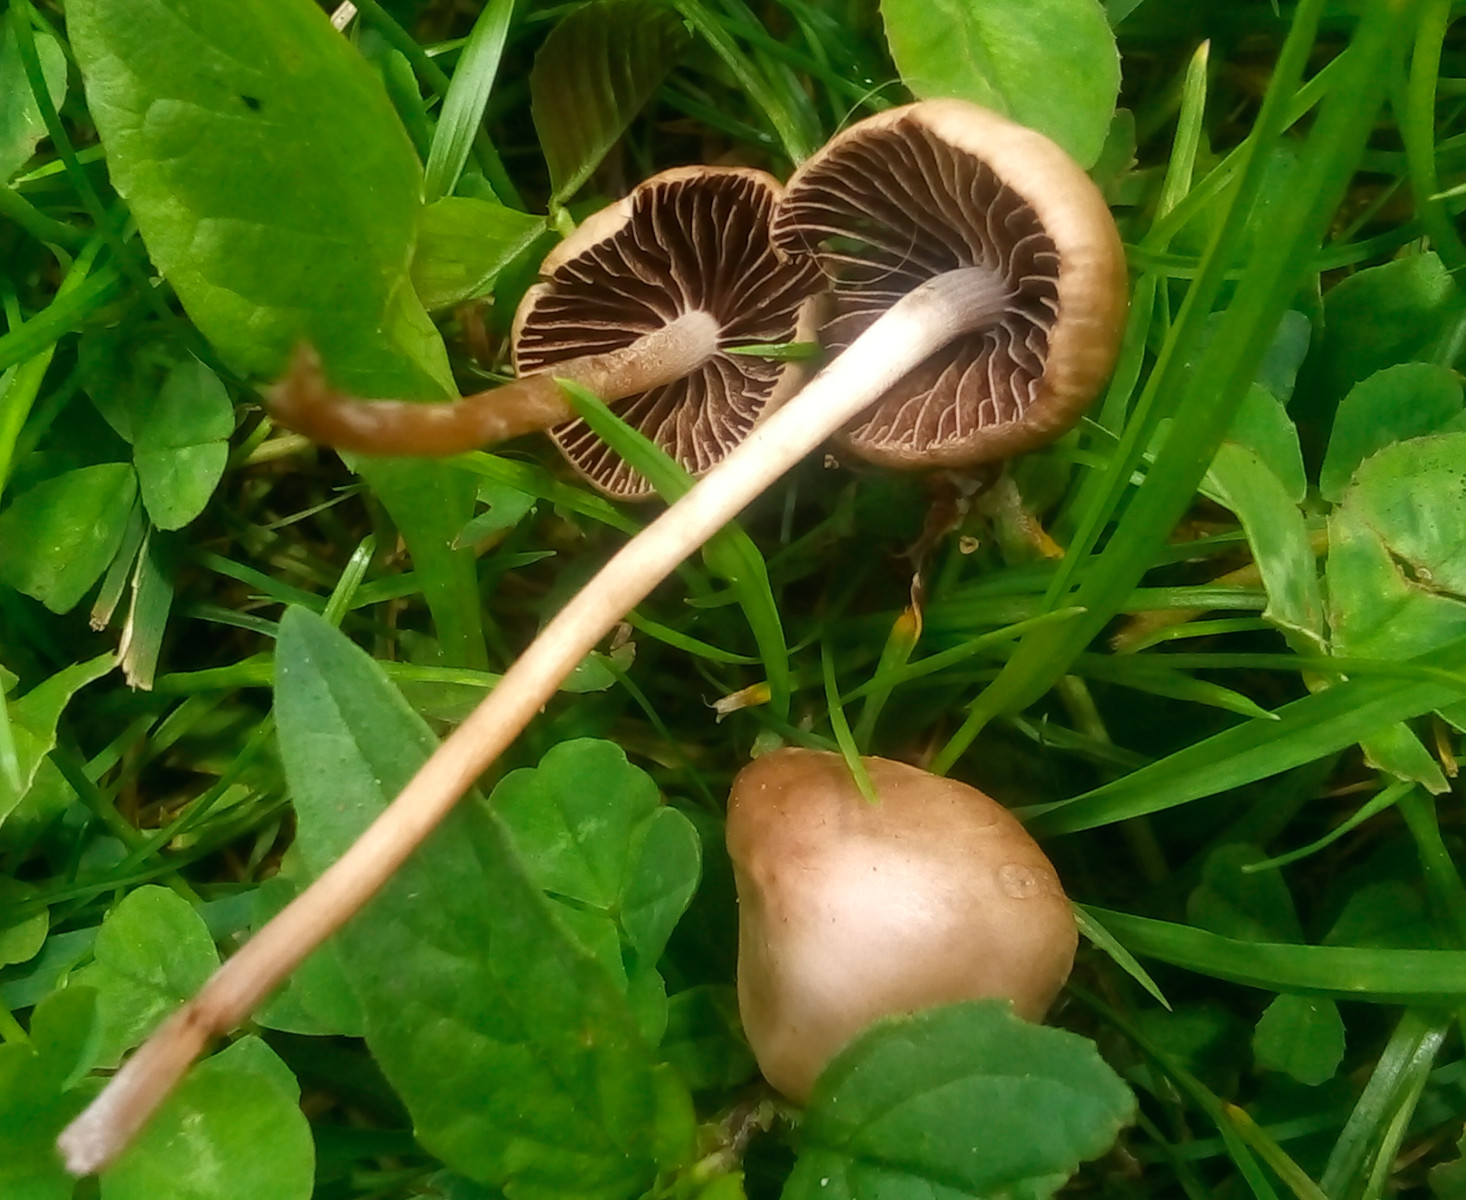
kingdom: Fungi
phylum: Basidiomycota
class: Agaricomycetes
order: Agaricales
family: Bolbitiaceae
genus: Panaeolina
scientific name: Panaeolina foenisecii
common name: høslætsvamp
